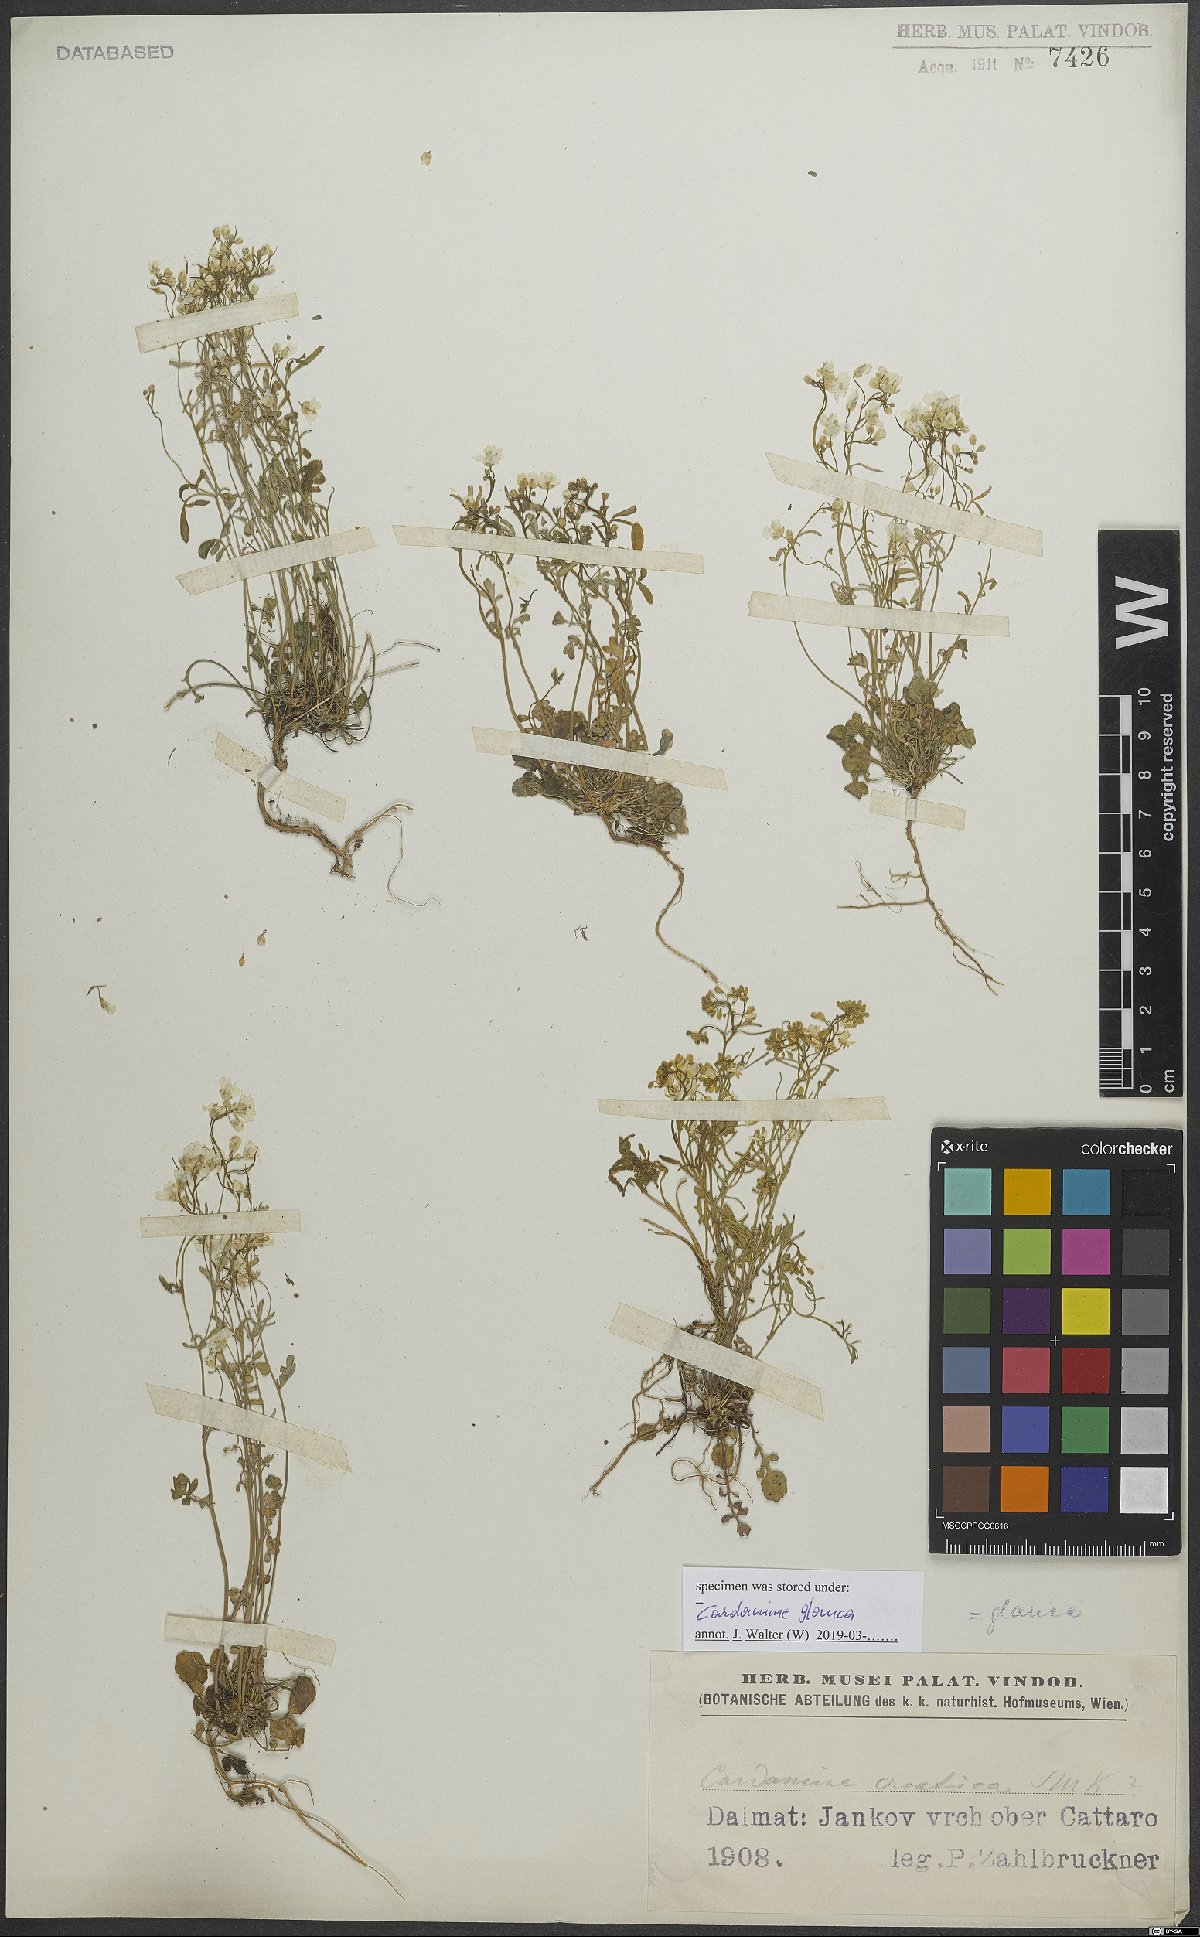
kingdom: Plantae
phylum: Tracheophyta
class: Magnoliopsida
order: Brassicales
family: Brassicaceae
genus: Cardamine
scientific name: Cardamine glauca
